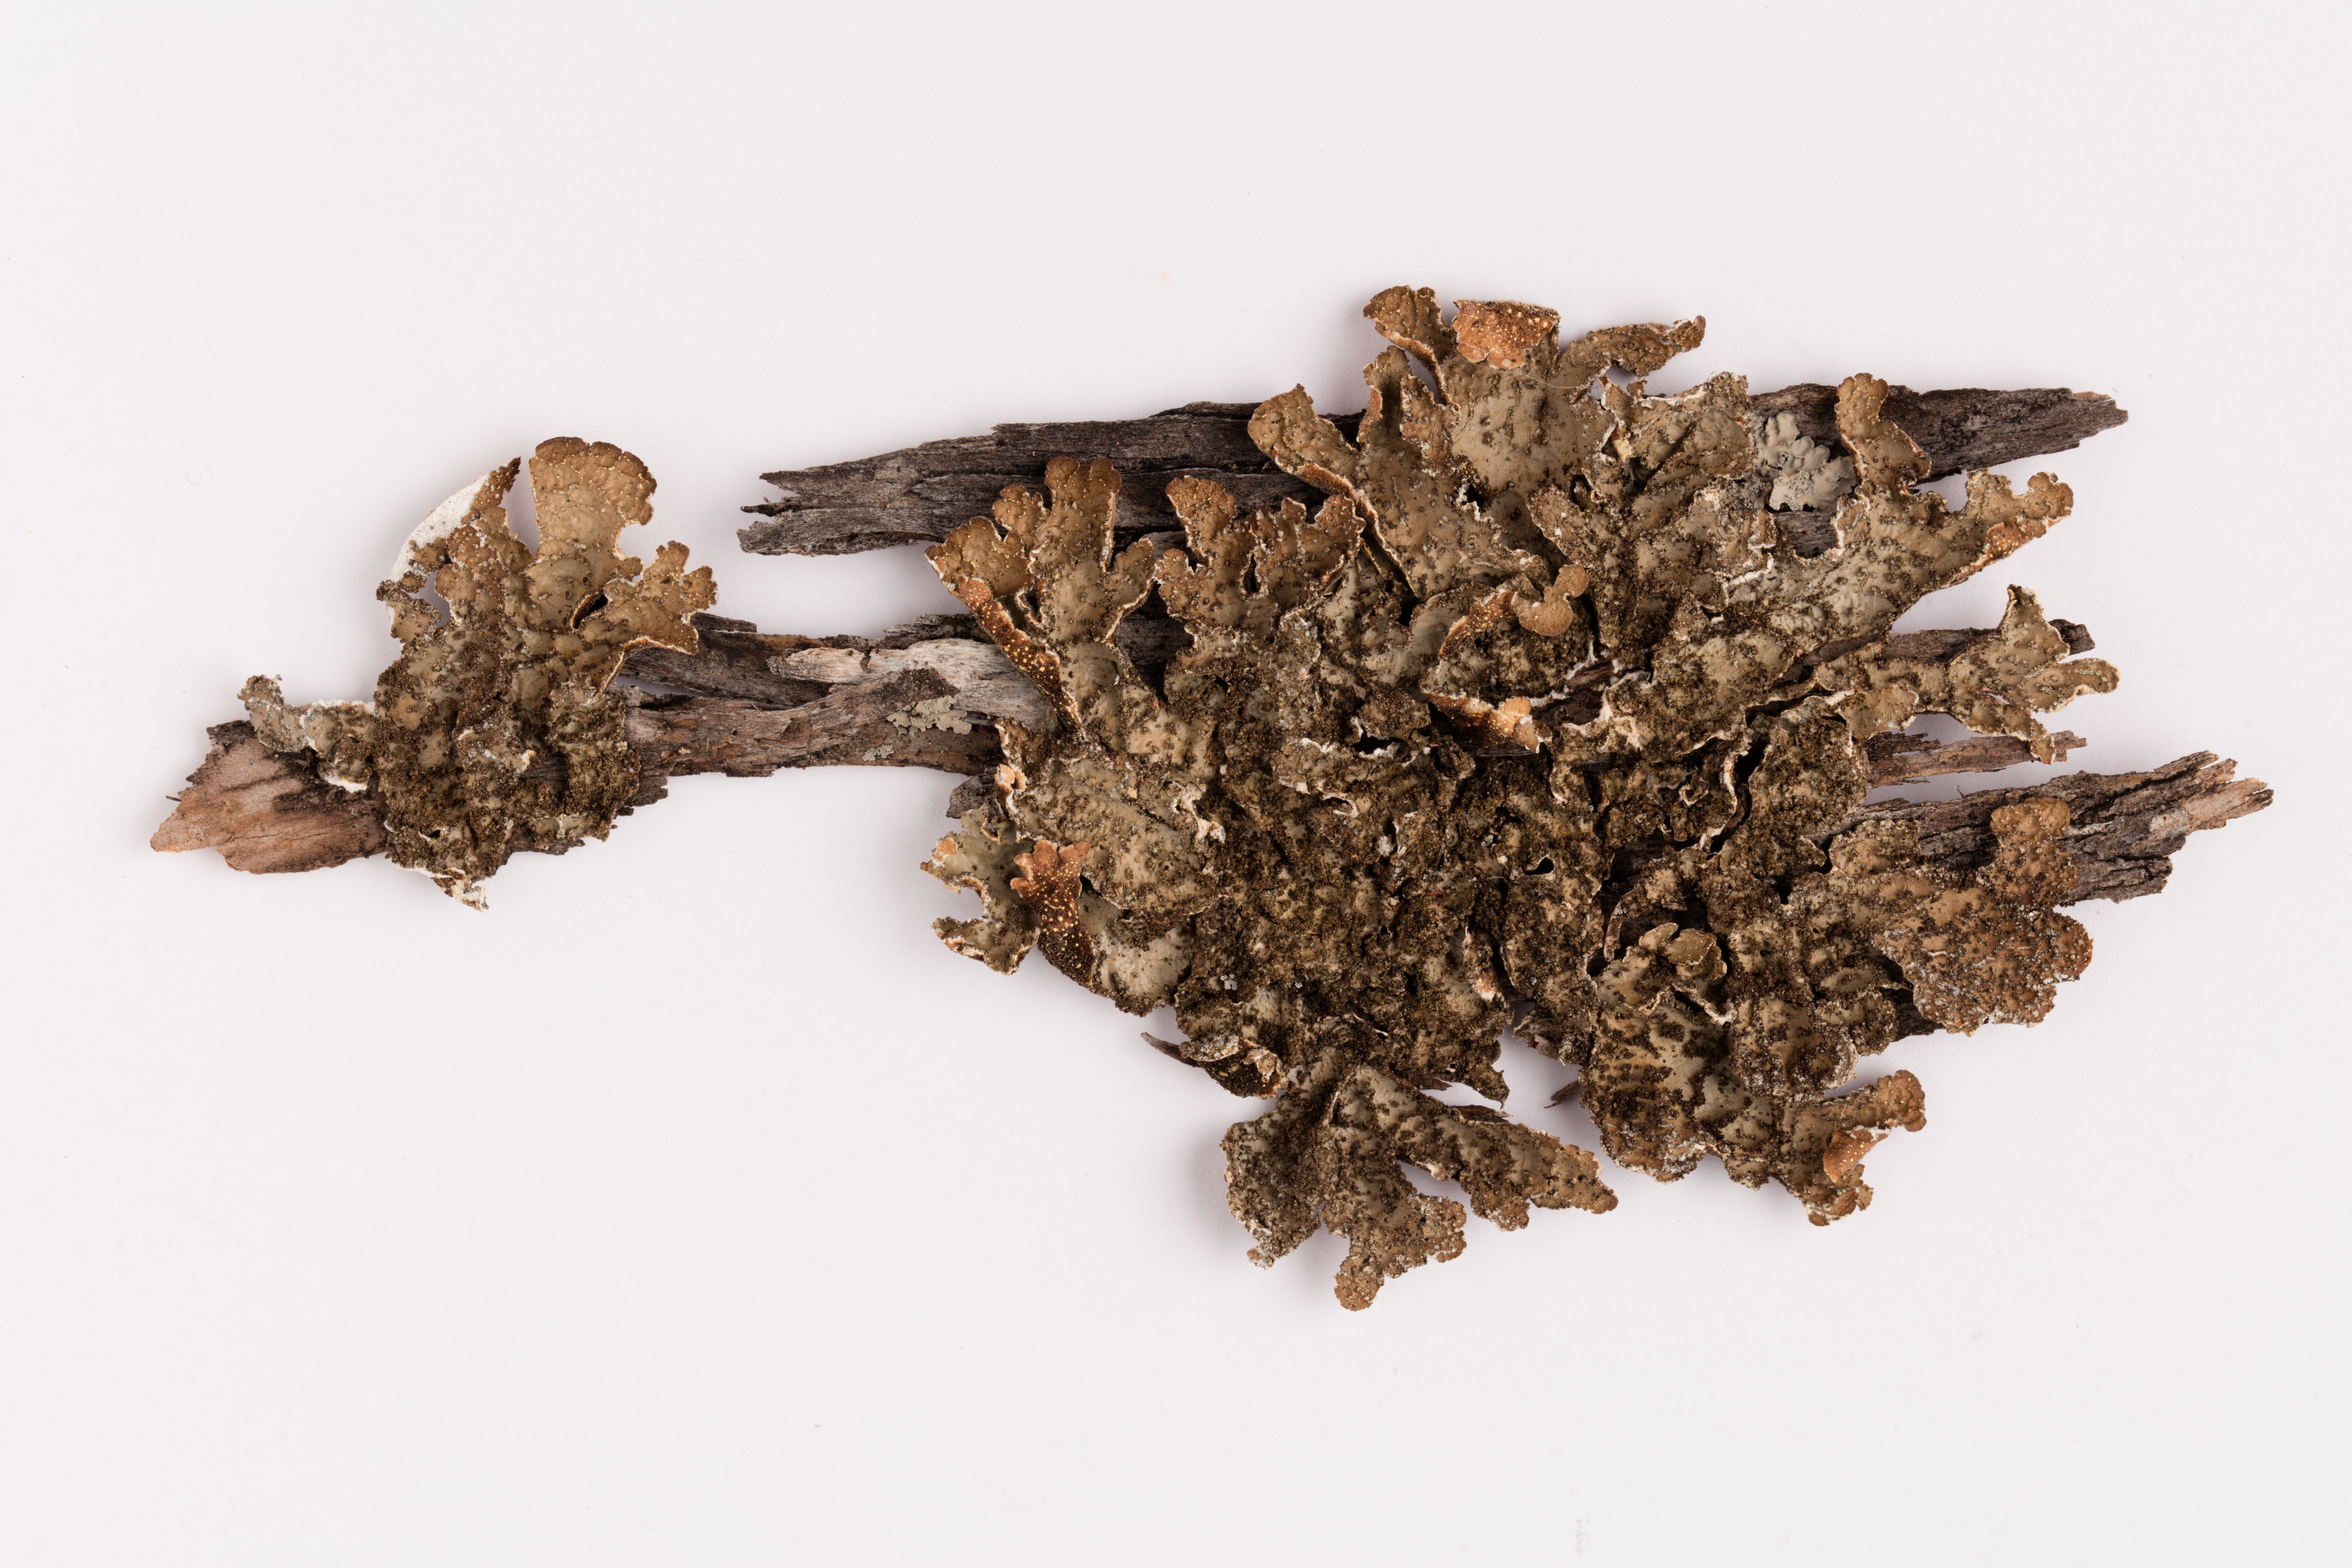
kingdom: Fungi
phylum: Ascomycota
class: Lecanoromycetes
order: Peltigerales
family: Lobariaceae
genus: Pseudocyphellaria
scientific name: Pseudocyphellaria bartlettii
